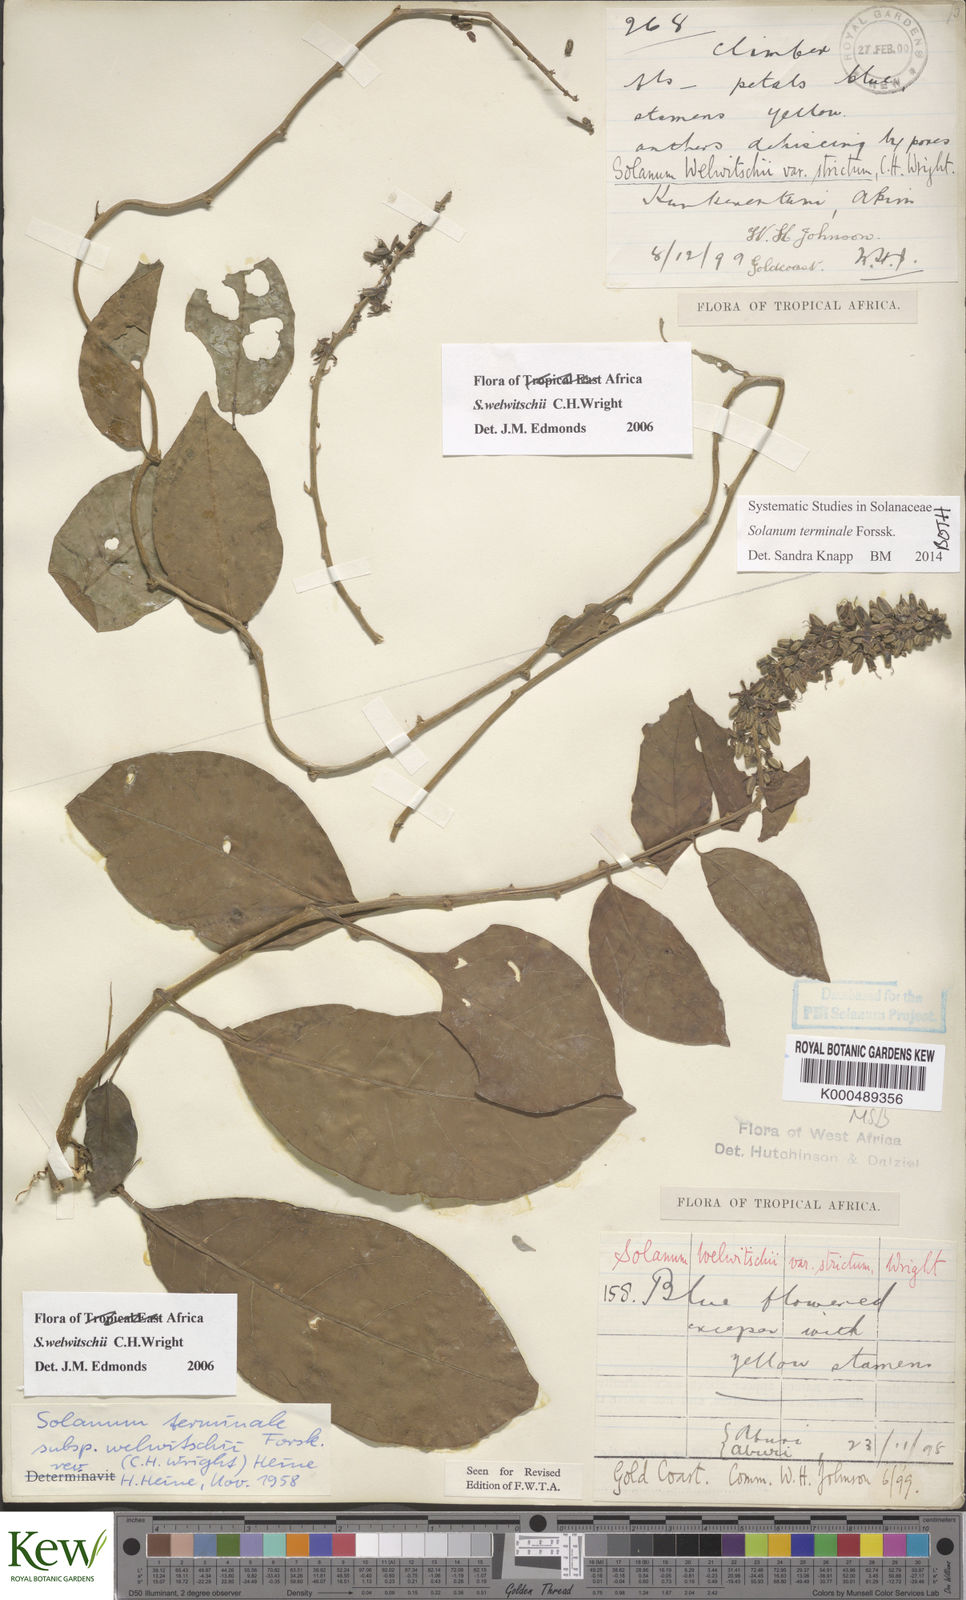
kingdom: Plantae
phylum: Tracheophyta
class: Magnoliopsida
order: Solanales
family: Solanaceae
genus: Solanum
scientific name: Solanum terminale
